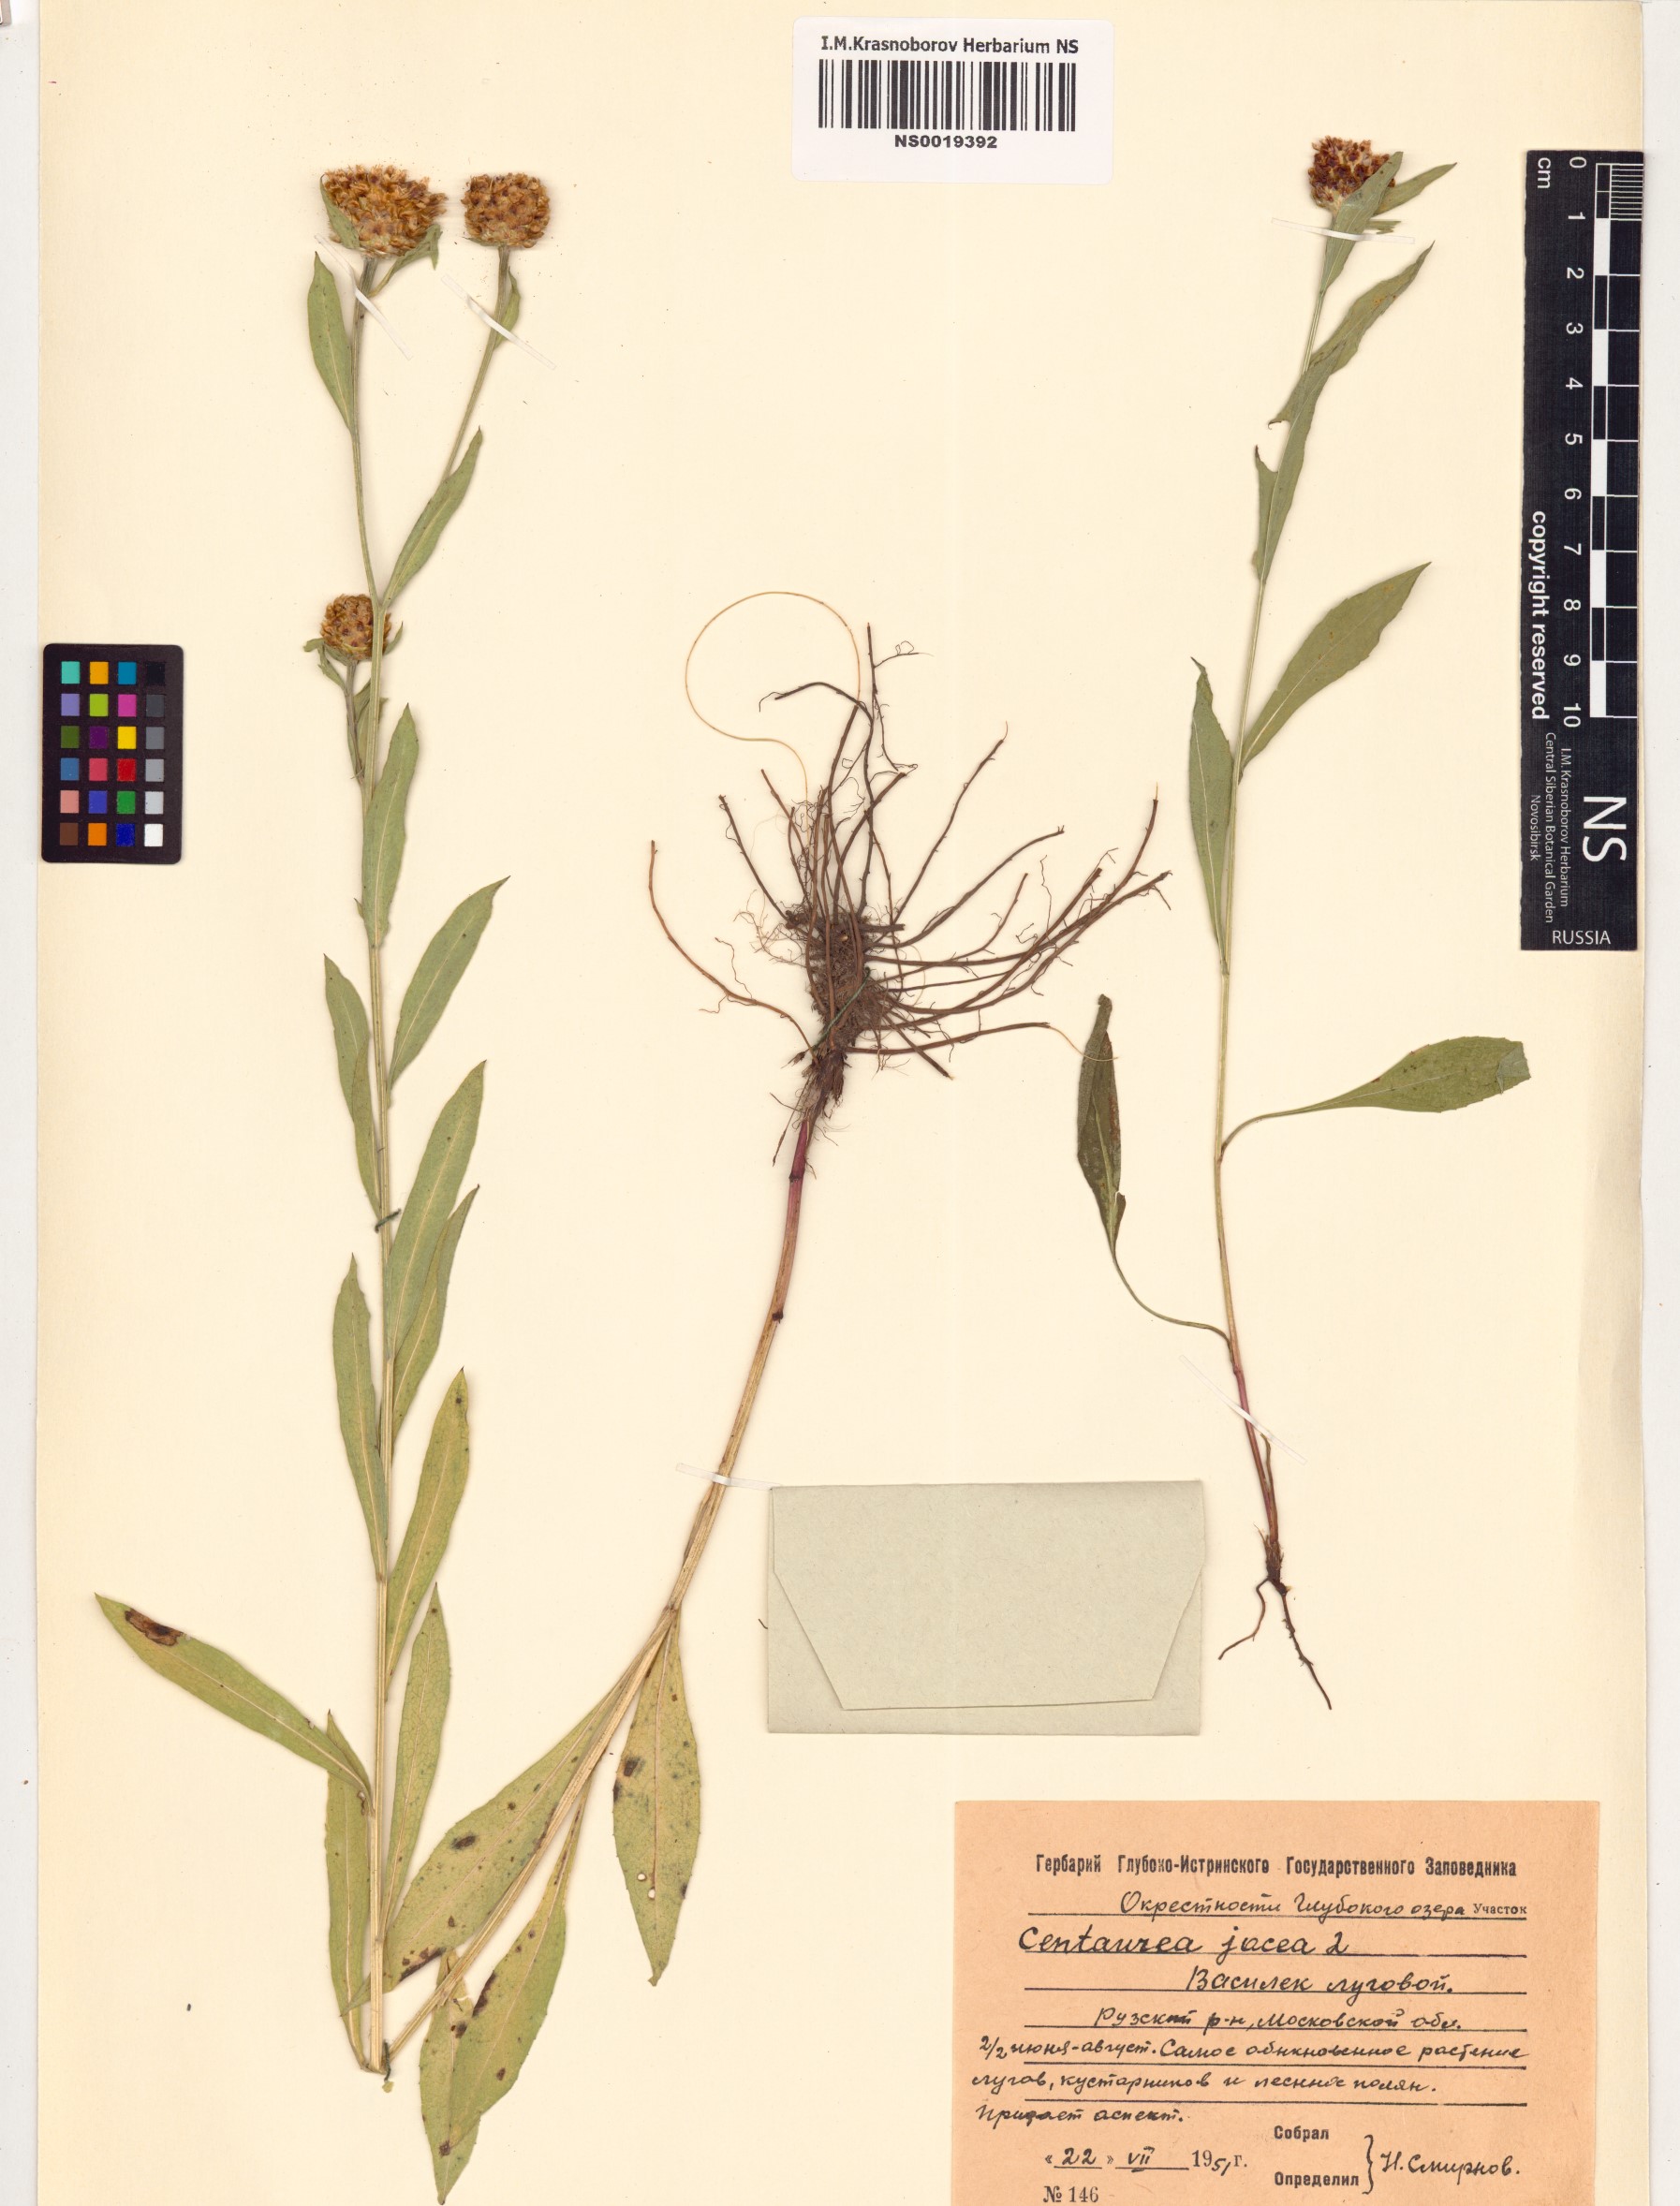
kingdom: Plantae
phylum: Tracheophyta
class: Magnoliopsida
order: Asterales
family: Asteraceae
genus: Centaurea
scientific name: Centaurea jacea
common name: Brown knapweed
